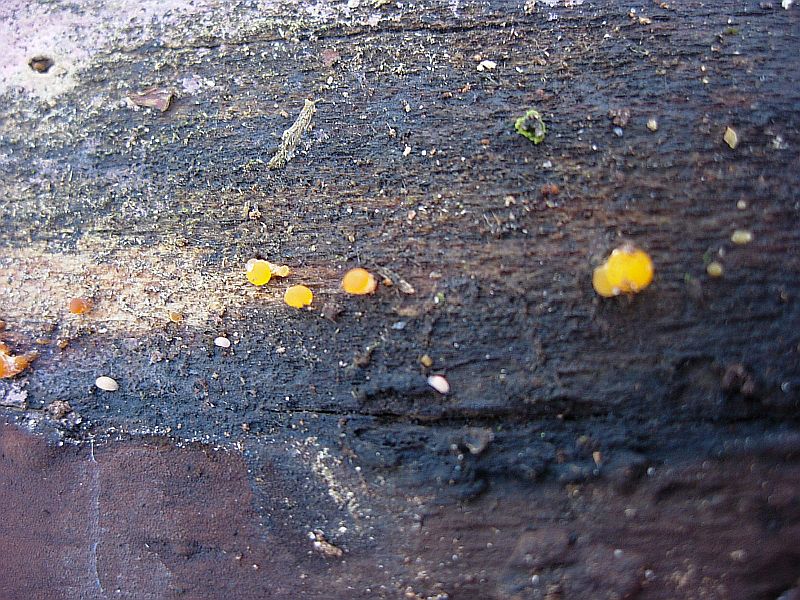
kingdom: Fungi
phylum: Basidiomycota
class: Dacrymycetes
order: Dacrymycetales
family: Dacrymycetaceae
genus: Dacrymyces
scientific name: Dacrymyces stillatus
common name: almindelig tåresvamp
